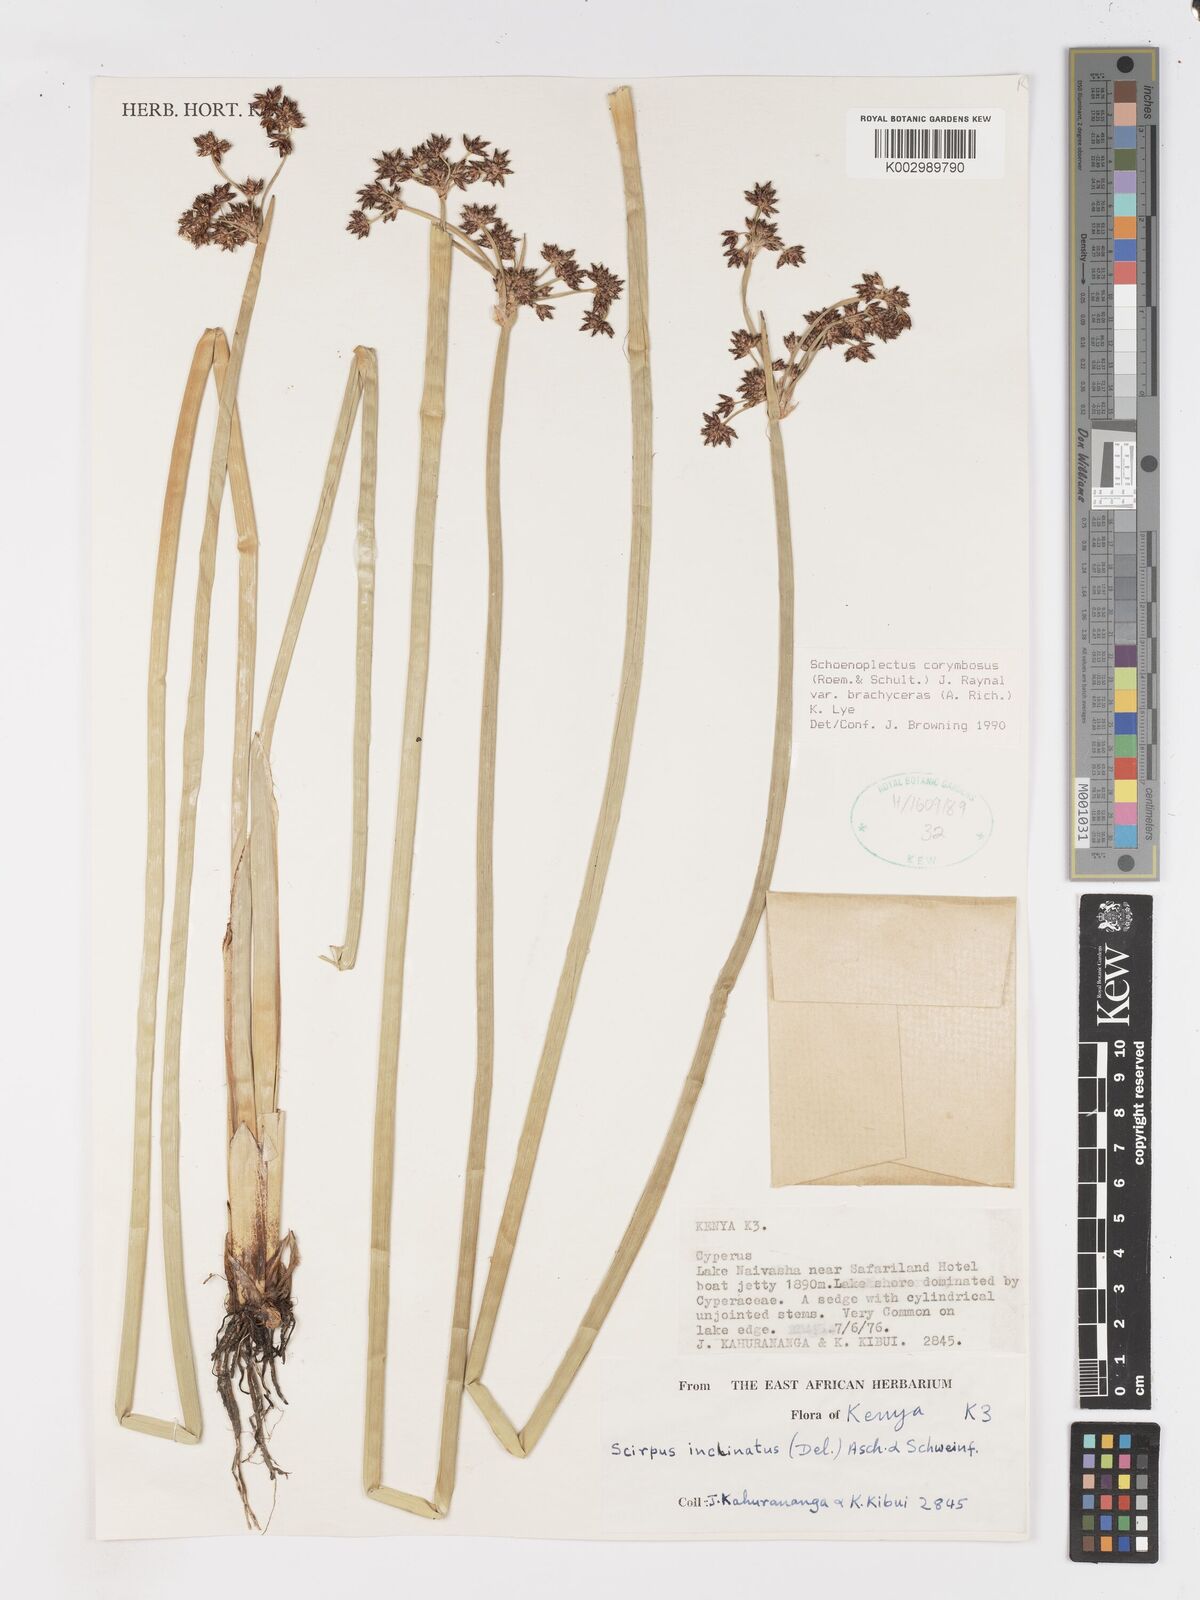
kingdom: Plantae
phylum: Tracheophyta
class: Liliopsida
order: Poales
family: Cyperaceae
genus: Schoenoplectiella
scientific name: Schoenoplectiella brachyceras
